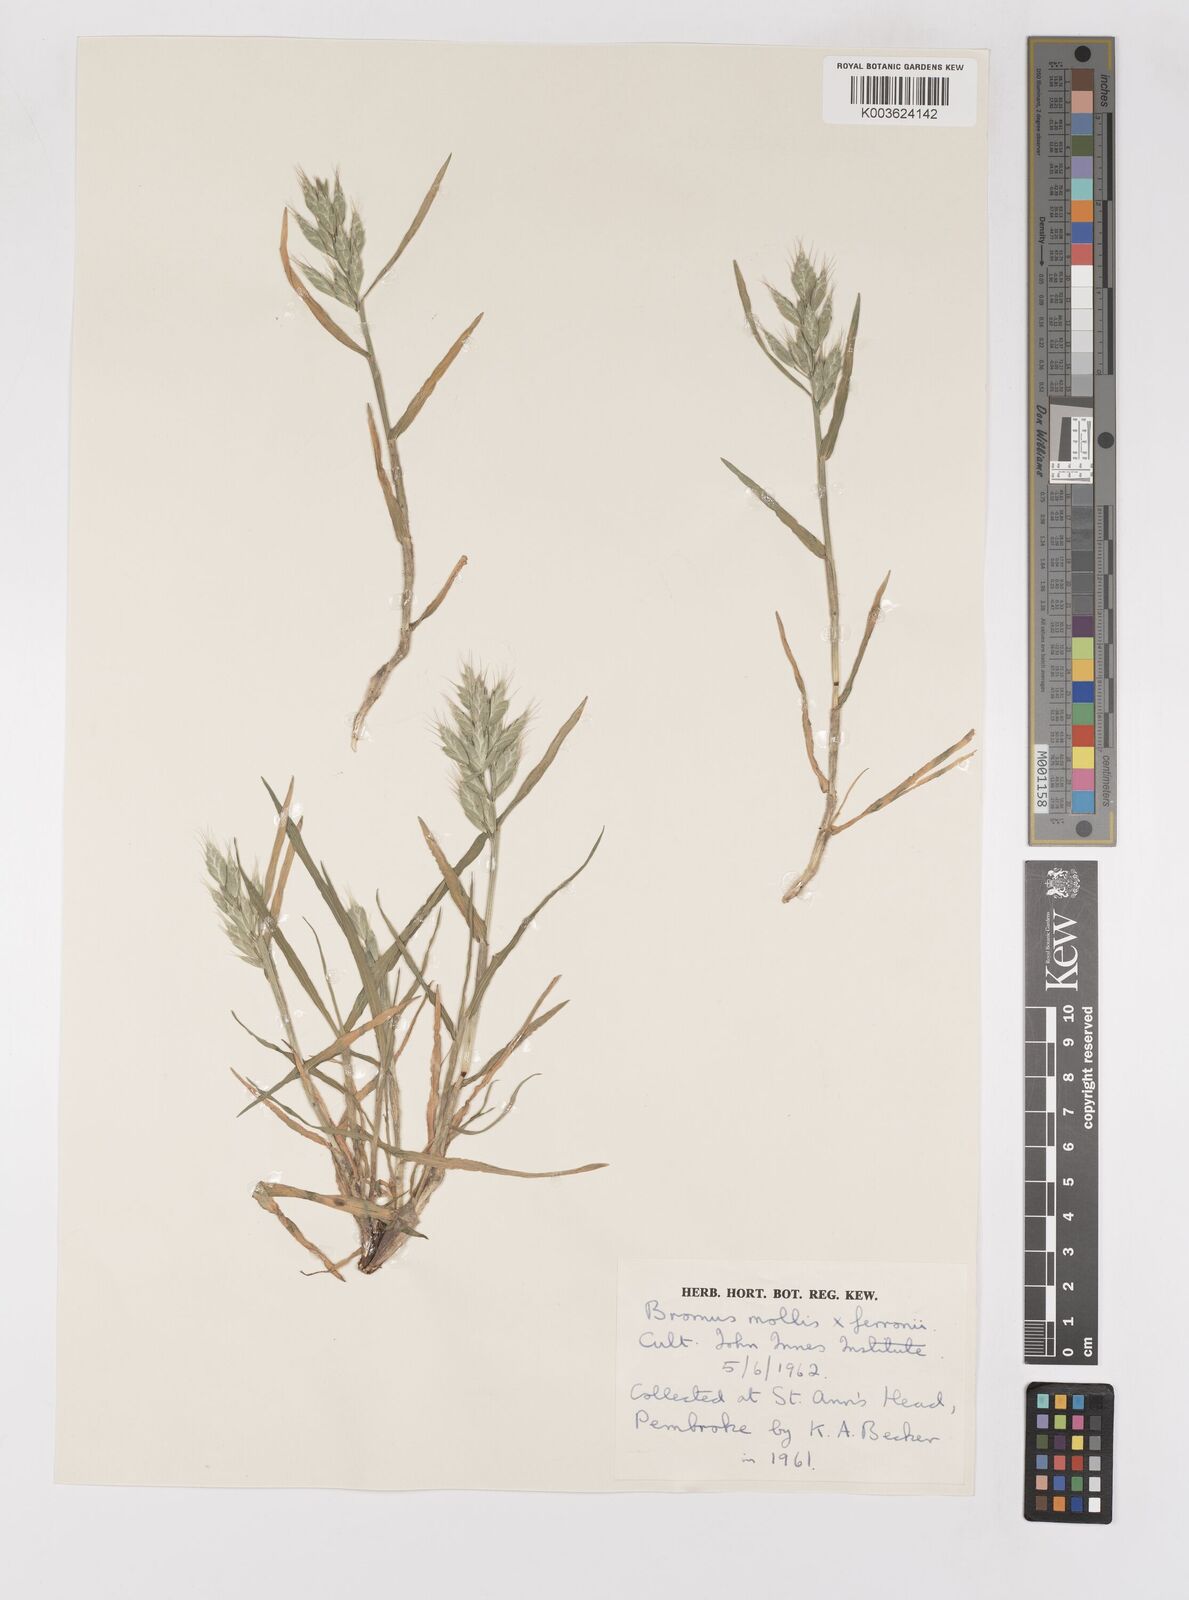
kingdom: Plantae
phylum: Tracheophyta
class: Liliopsida
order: Poales
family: Poaceae
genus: Bromus
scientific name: Bromus hordeaceus
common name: Soft brome
